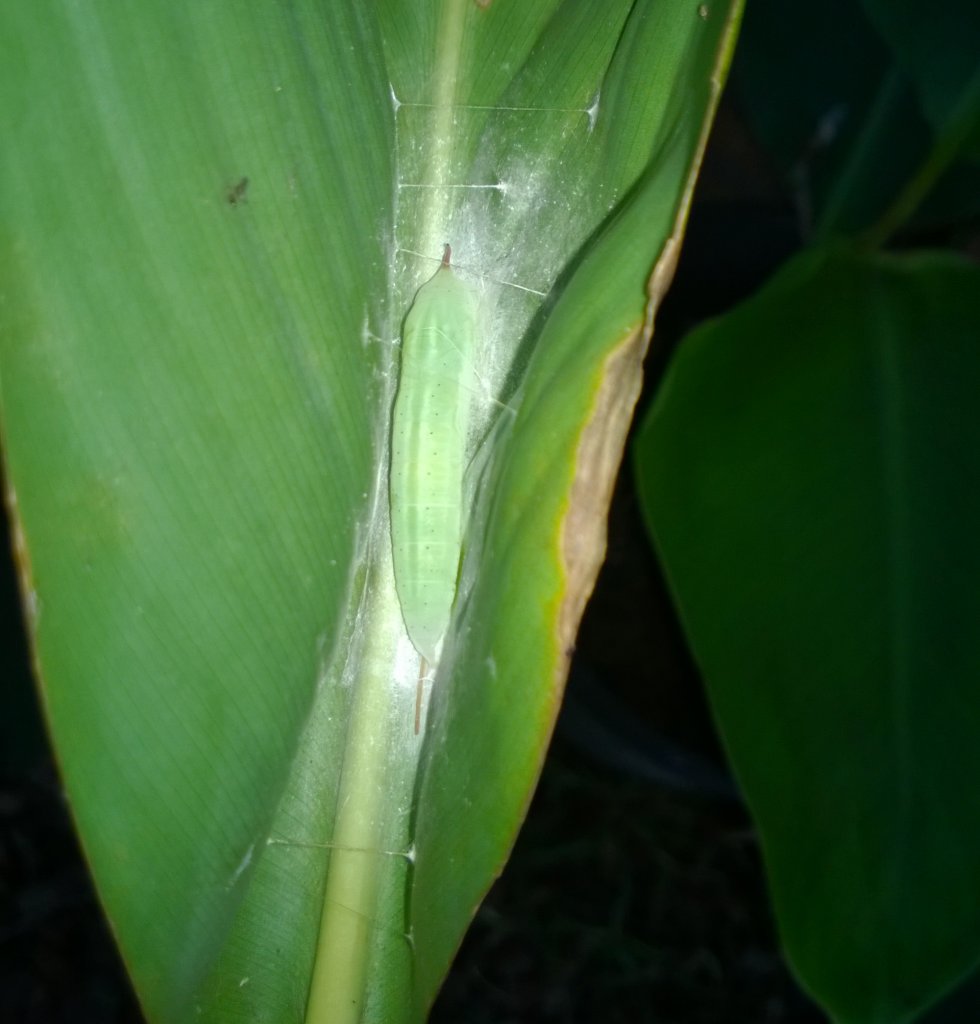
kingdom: Animalia
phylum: Arthropoda
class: Insecta
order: Lepidoptera
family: Hesperiidae
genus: Calpodes
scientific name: Calpodes ethlius
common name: Brazilian Skipper
